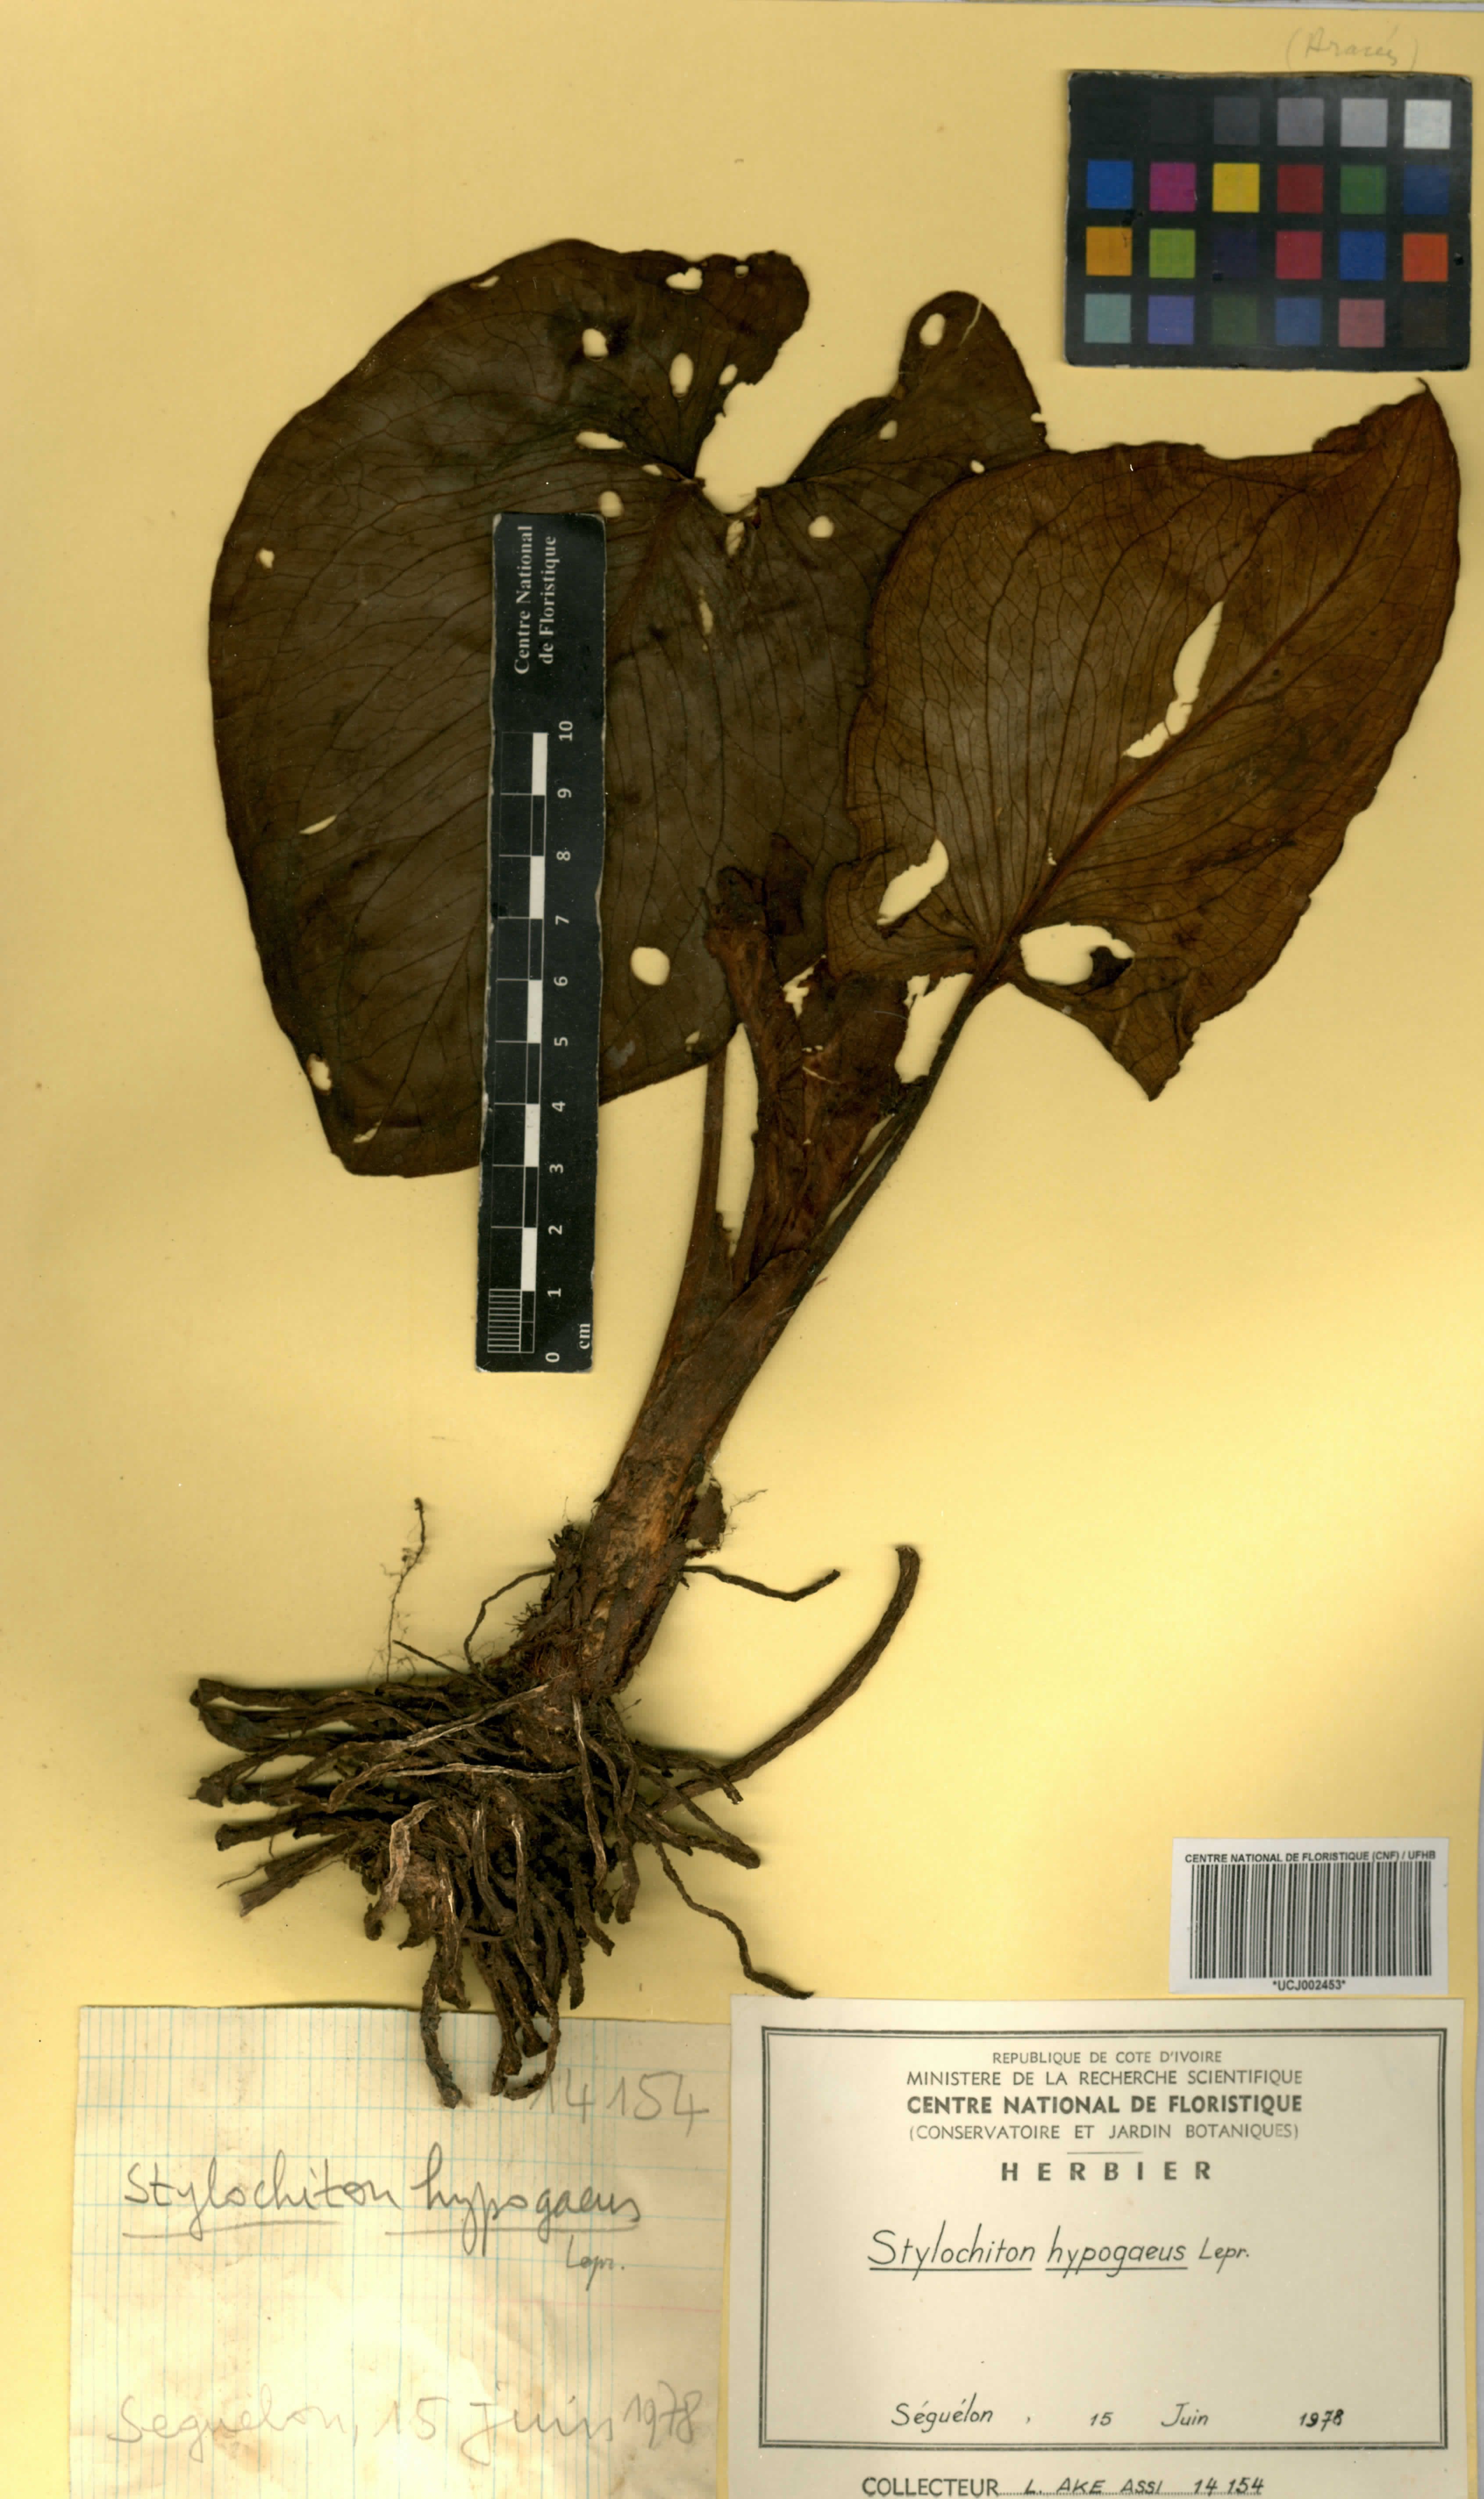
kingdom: Plantae
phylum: Tracheophyta
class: Liliopsida
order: Alismatales
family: Araceae
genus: Stylochaeton
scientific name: Stylochaeton hypogaeum
